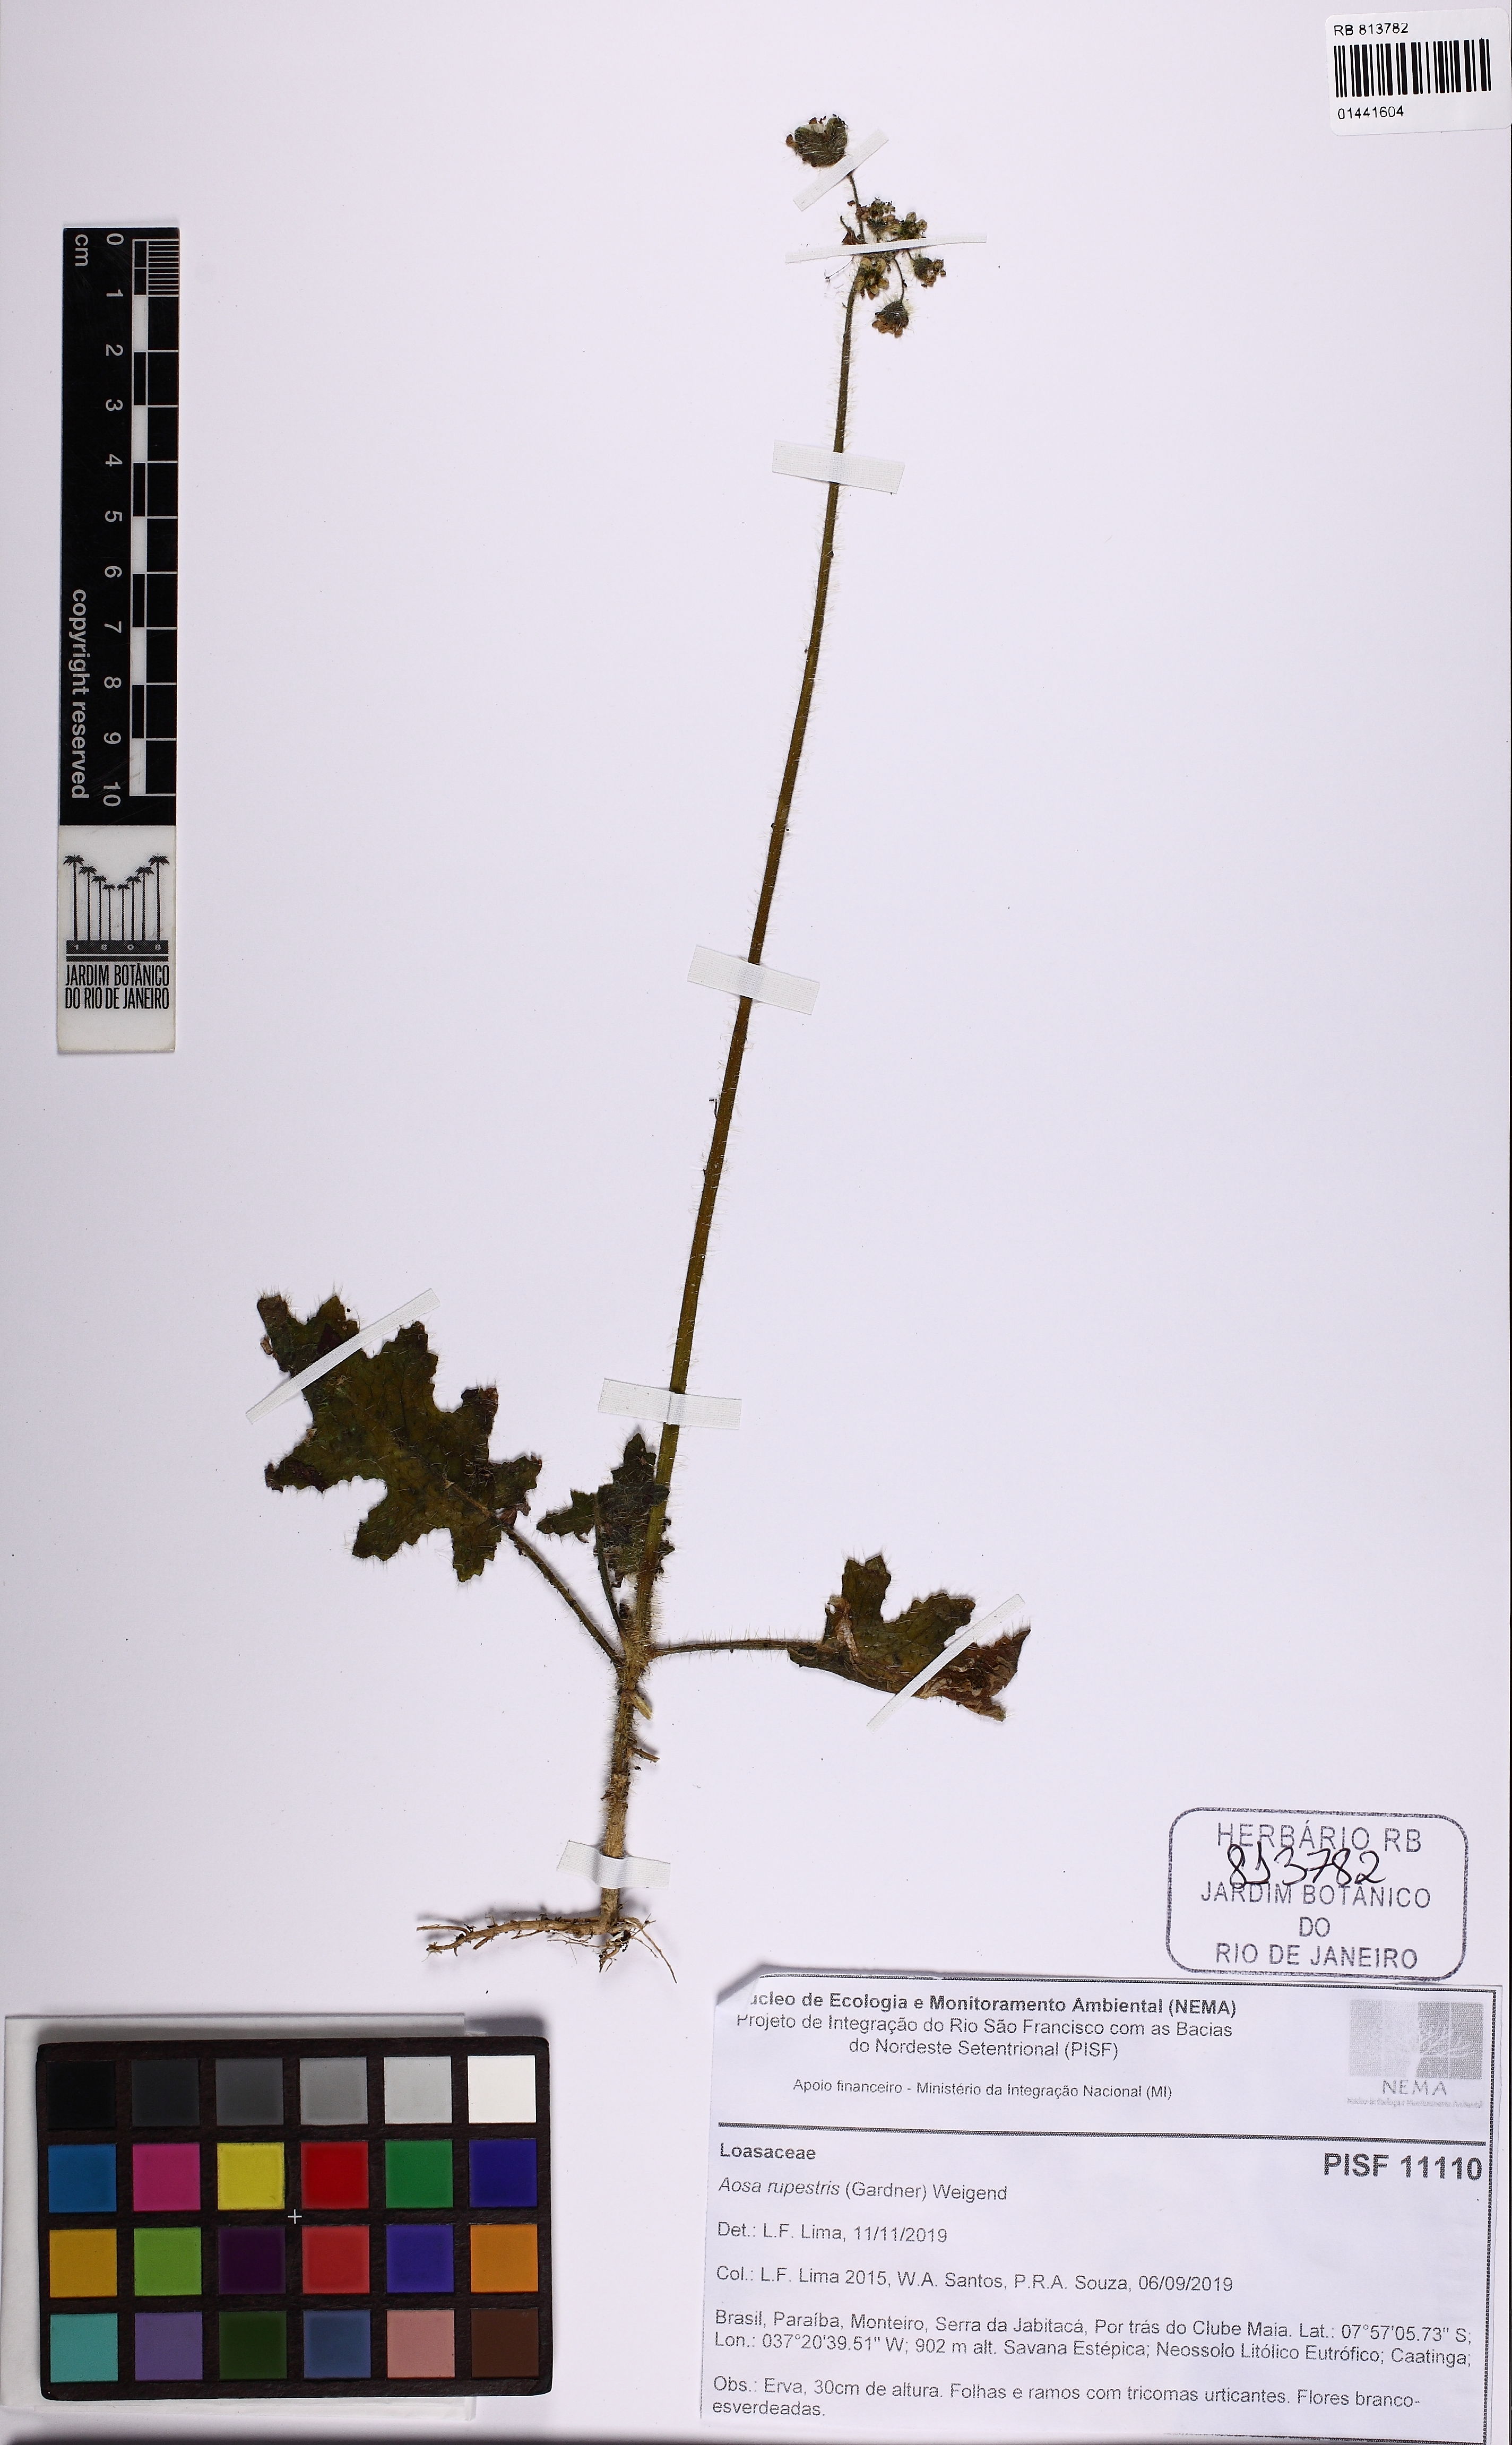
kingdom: Plantae
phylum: Tracheophyta
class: Magnoliopsida
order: Cornales
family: Loasaceae
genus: Aosa
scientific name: Aosa rupestris
